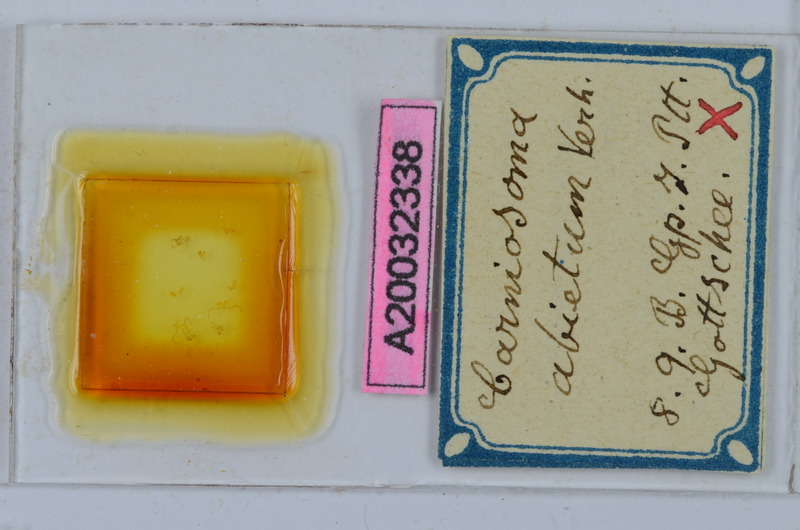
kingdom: Animalia
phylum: Arthropoda
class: Diplopoda
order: Chordeumatida
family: Craspedosomatidae
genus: Carniosoma
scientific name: Carniosoma abietum
